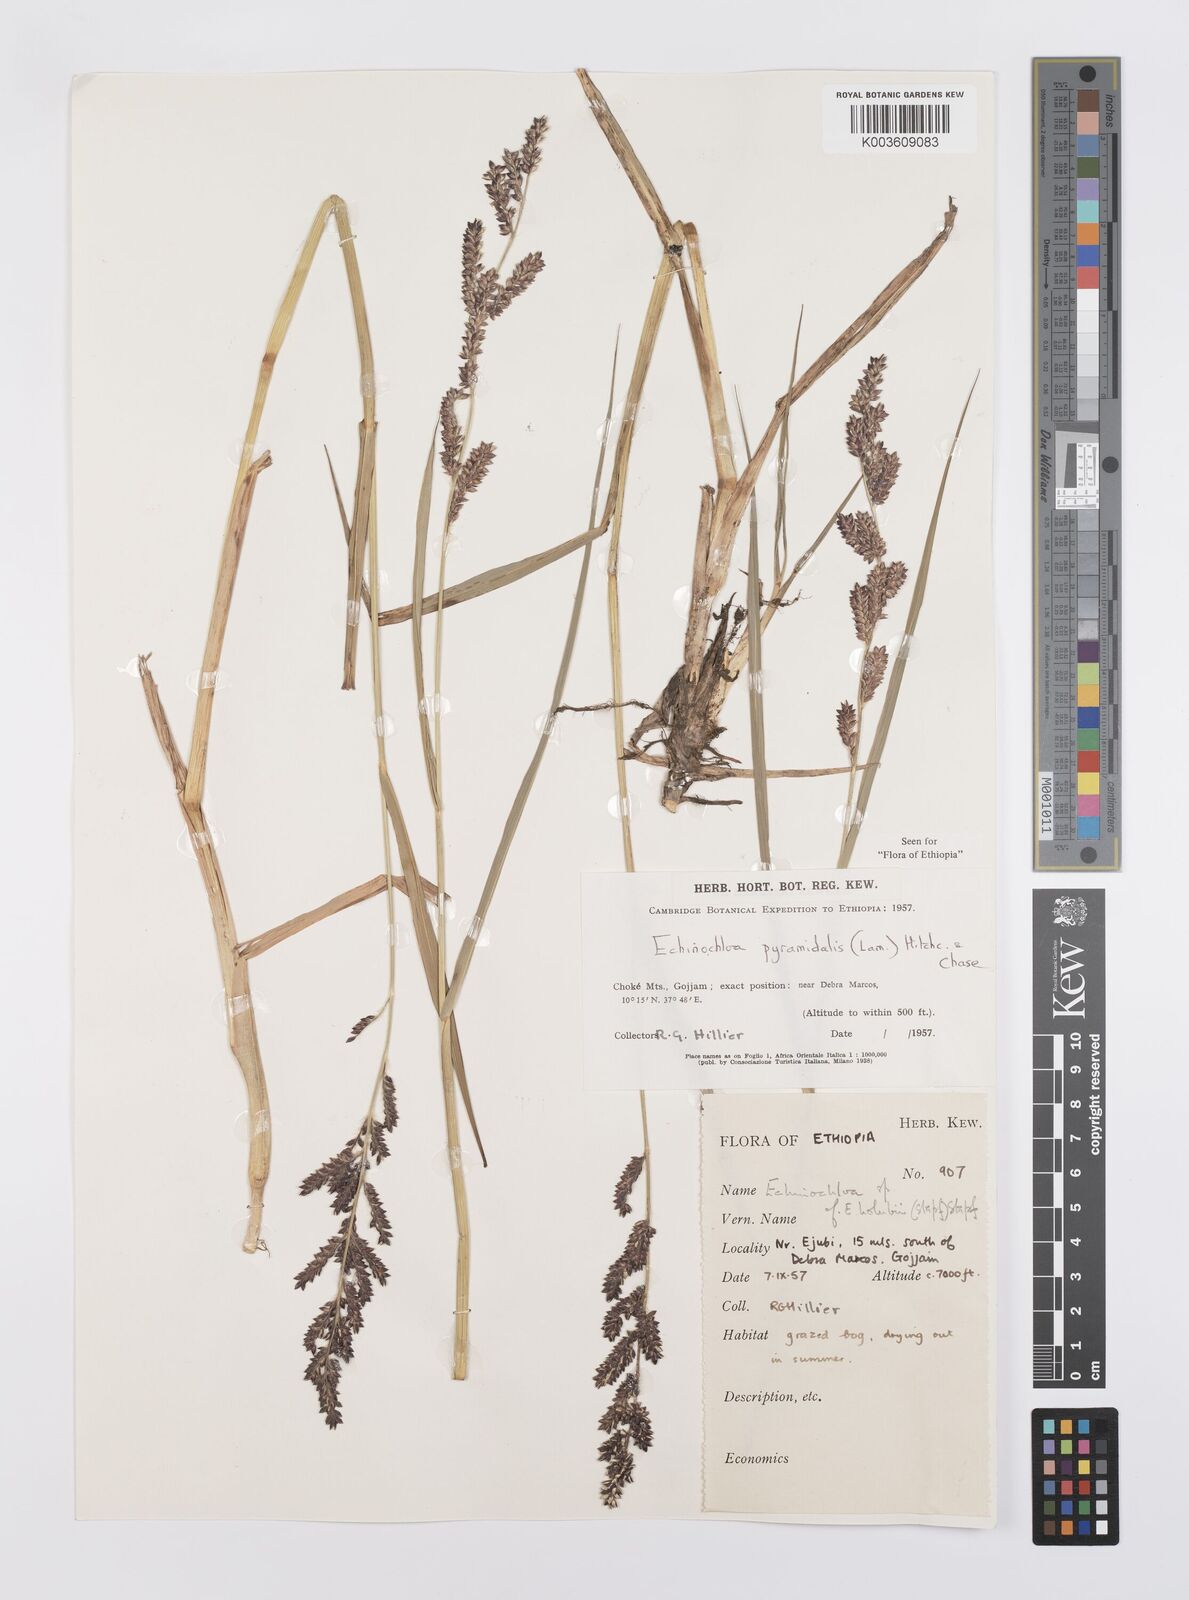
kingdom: Plantae
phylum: Tracheophyta
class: Liliopsida
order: Poales
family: Poaceae
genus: Echinochloa
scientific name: Echinochloa pyramidalis
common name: Antelope grass
